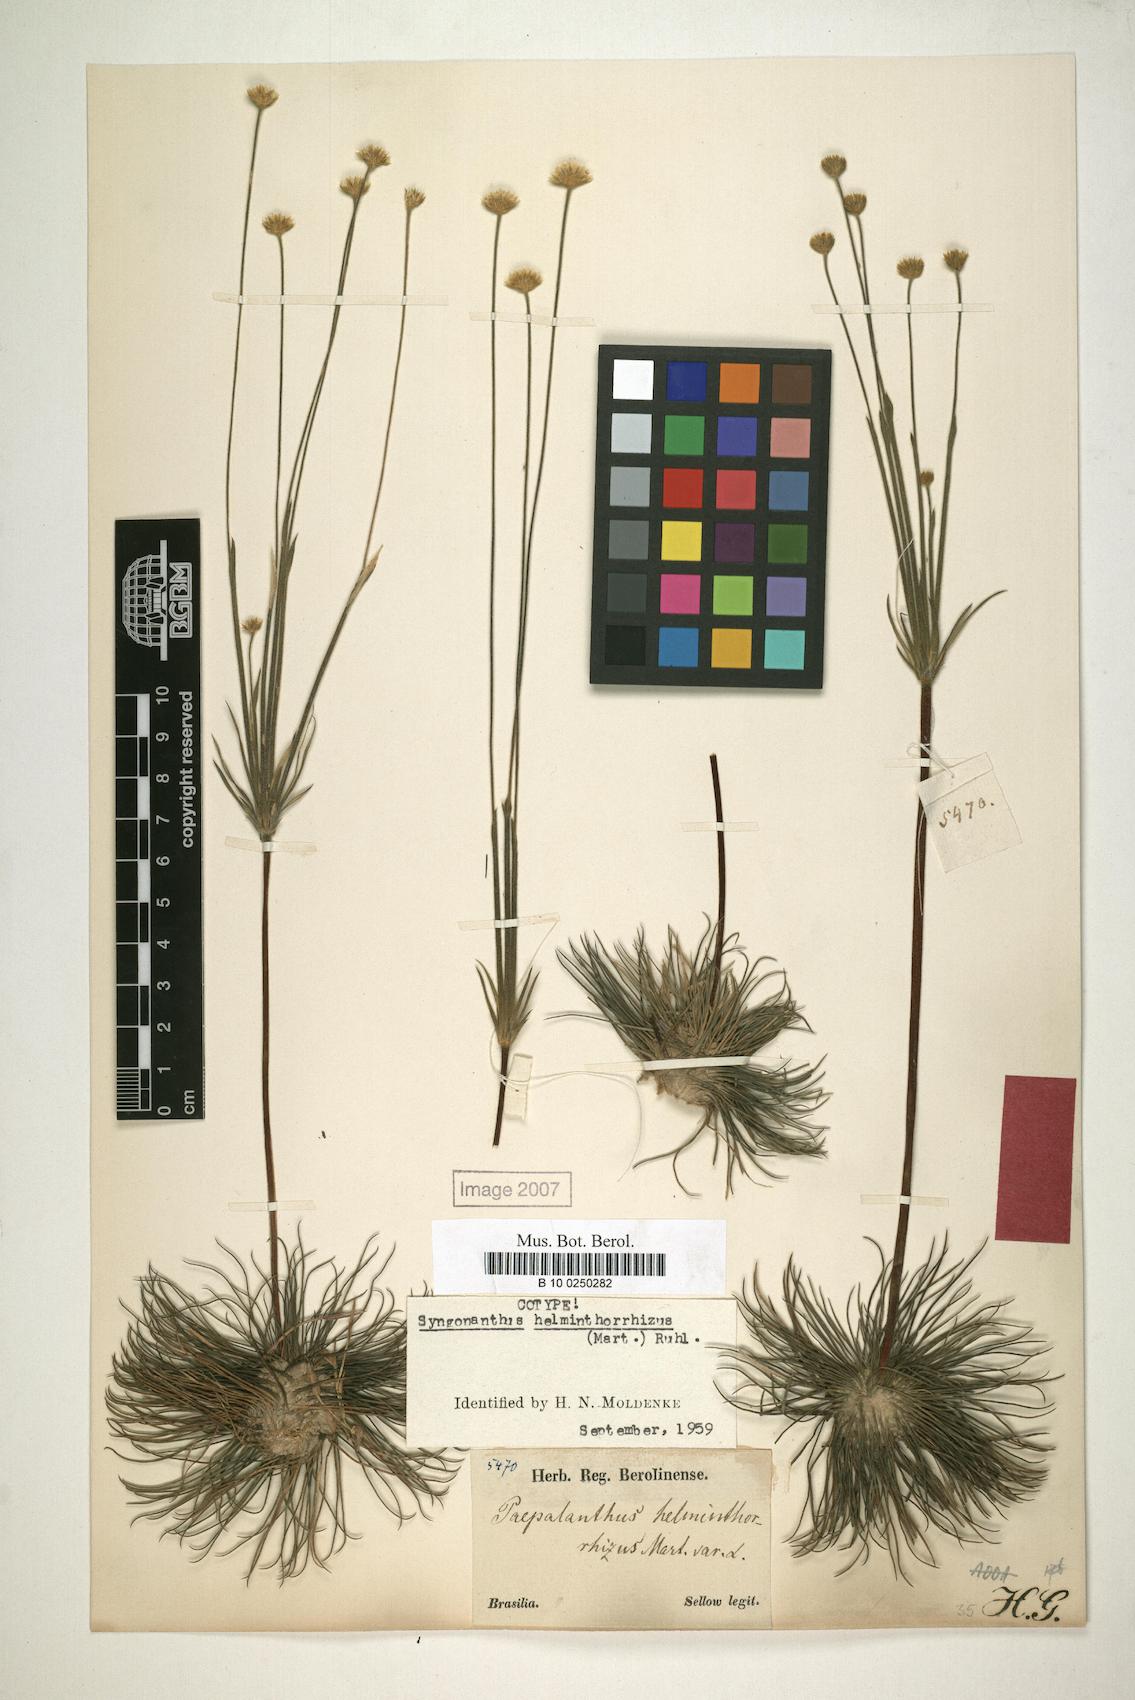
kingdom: Plantae
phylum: Tracheophyta
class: Liliopsida
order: Poales
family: Eriocaulaceae
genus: Syngonanthus
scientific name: Syngonanthus helminthorrhizus
